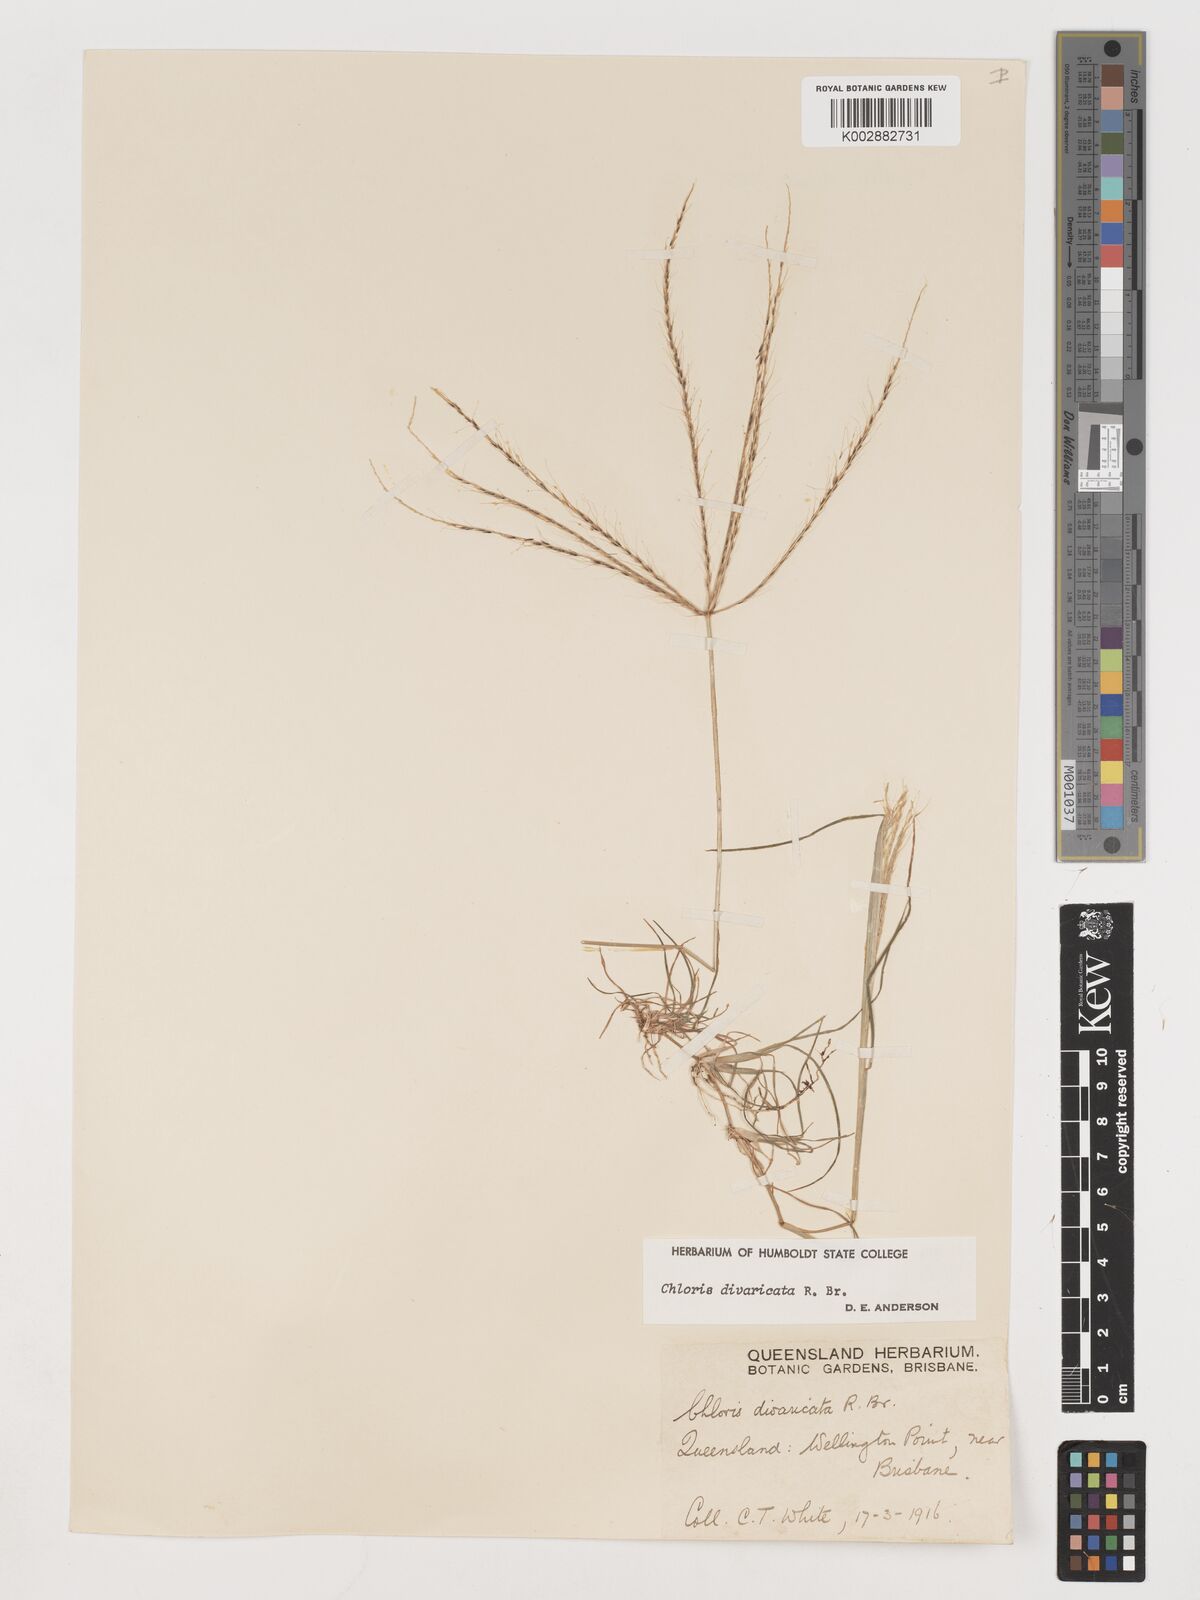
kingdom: Plantae
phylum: Tracheophyta
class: Liliopsida
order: Poales
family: Poaceae
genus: Chloris
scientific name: Chloris divaricata
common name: Spreading windmill grass
